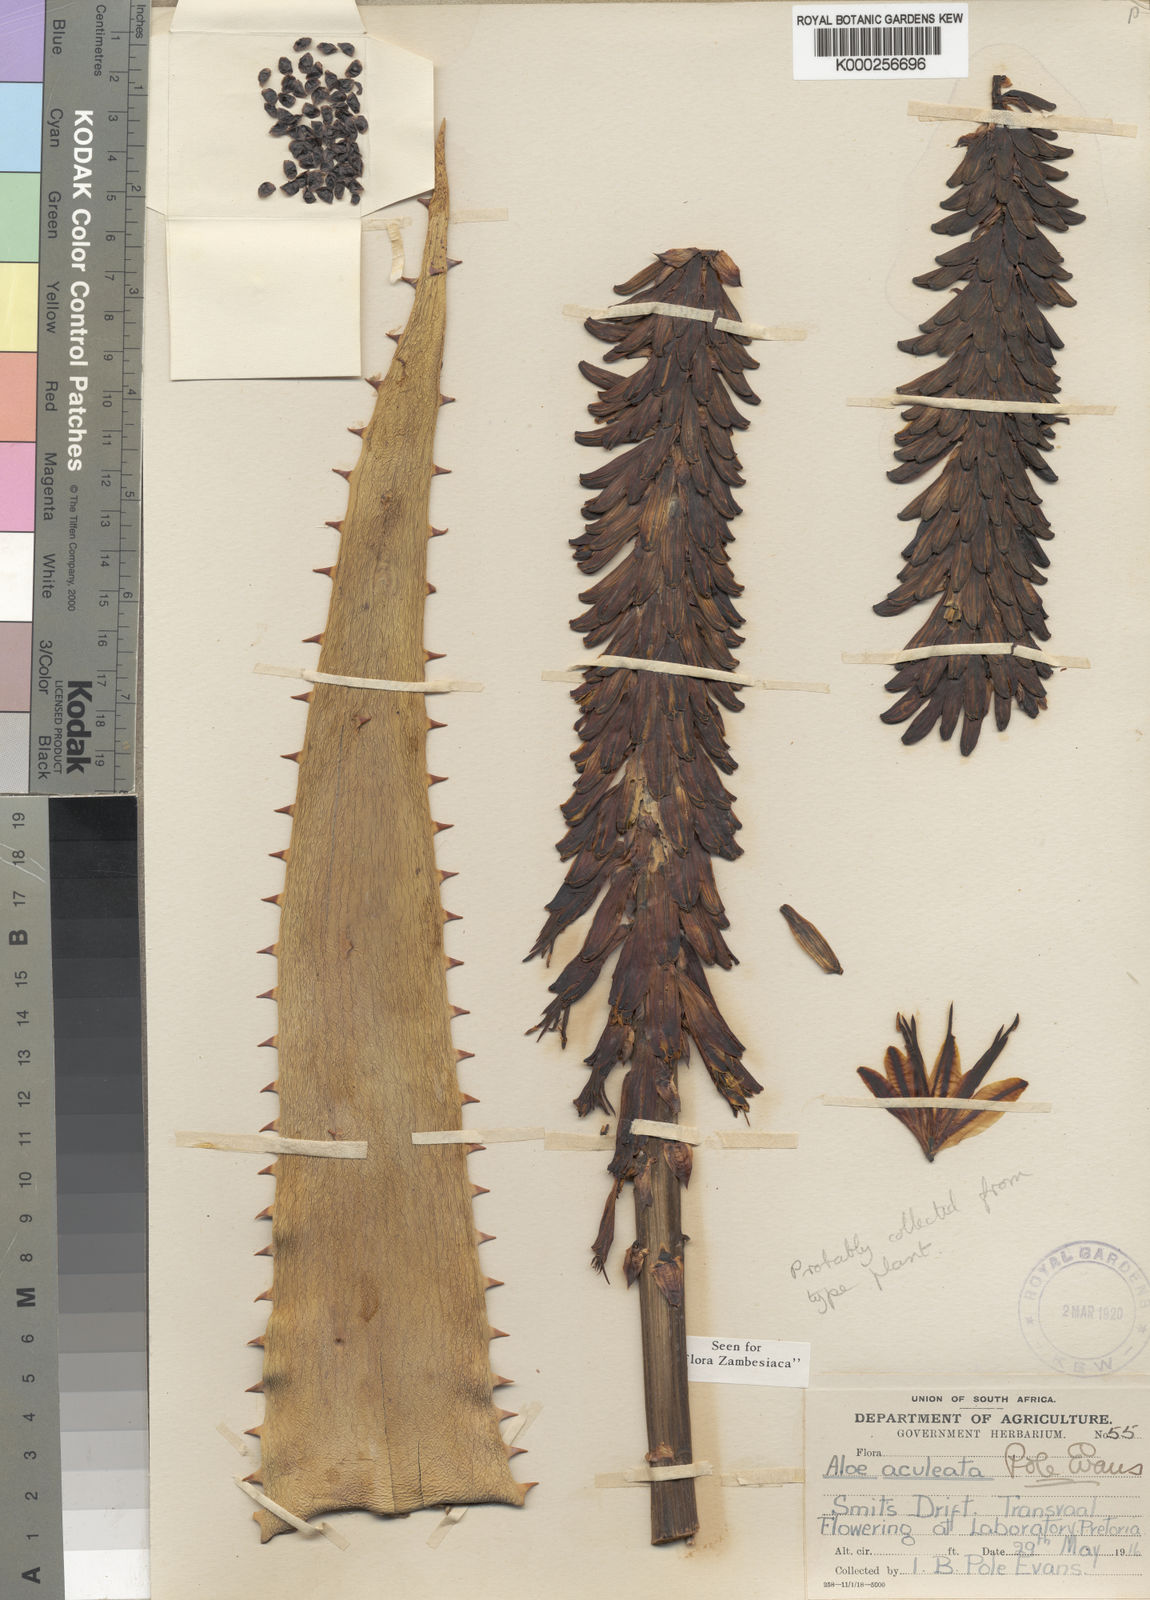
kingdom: Plantae
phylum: Tracheophyta
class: Liliopsida
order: Asparagales
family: Asphodelaceae
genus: Aloe
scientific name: Aloe aculeata
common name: Red hot poker aloe
